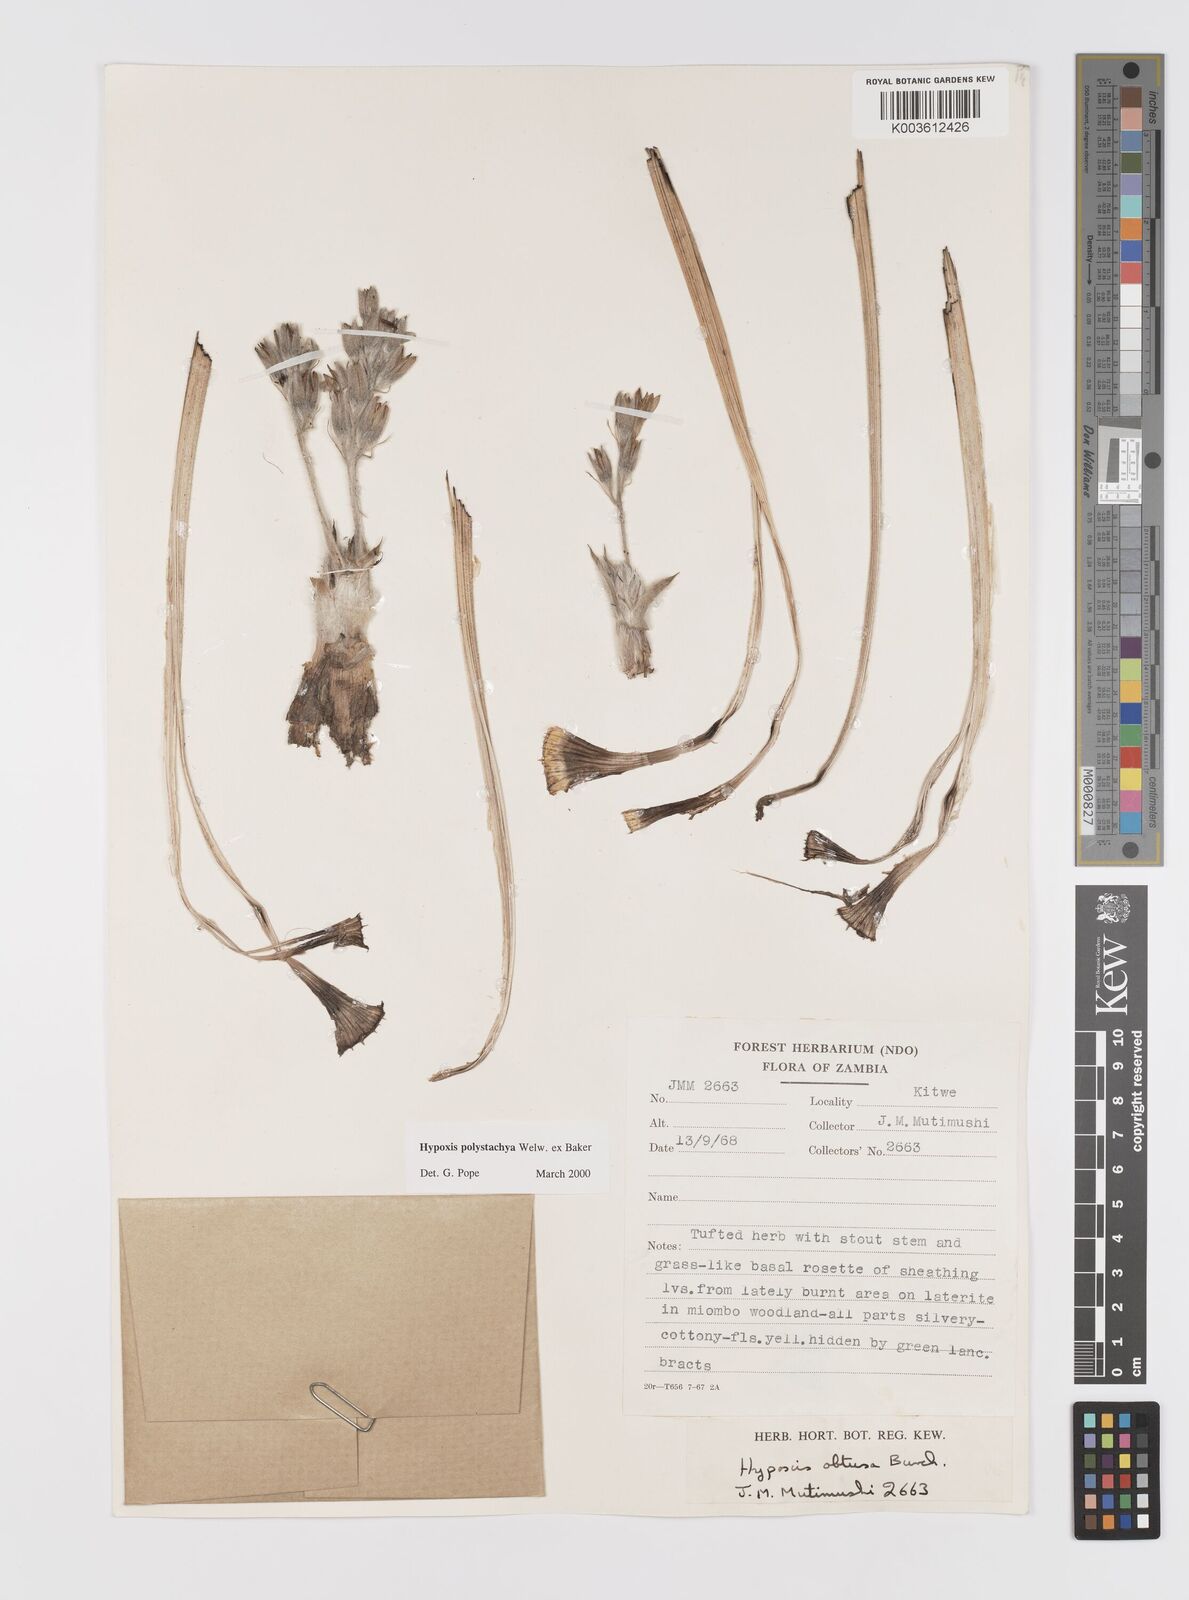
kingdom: Plantae
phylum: Tracheophyta
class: Liliopsida
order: Asparagales
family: Hypoxidaceae
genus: Hypoxis
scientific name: Hypoxis polystachya
